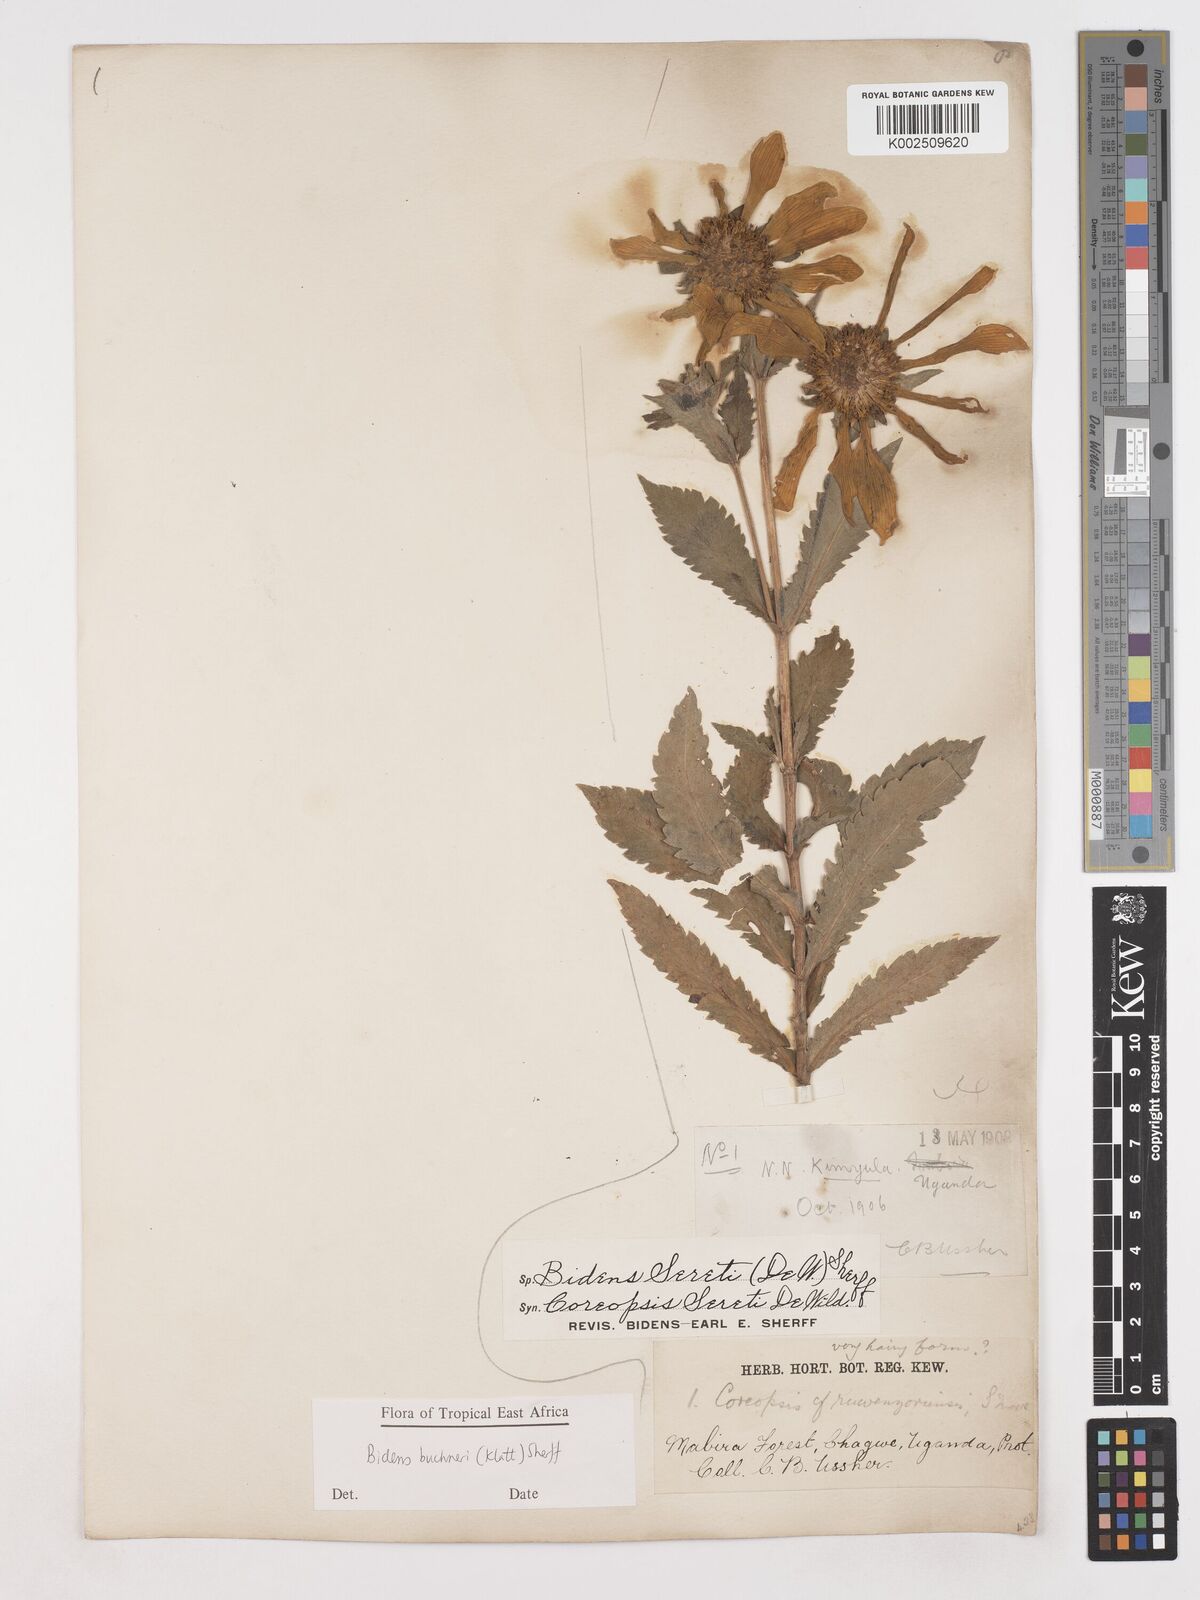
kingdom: Plantae
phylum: Tracheophyta
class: Magnoliopsida
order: Asterales
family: Asteraceae
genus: Bidens
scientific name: Bidens buchneri
